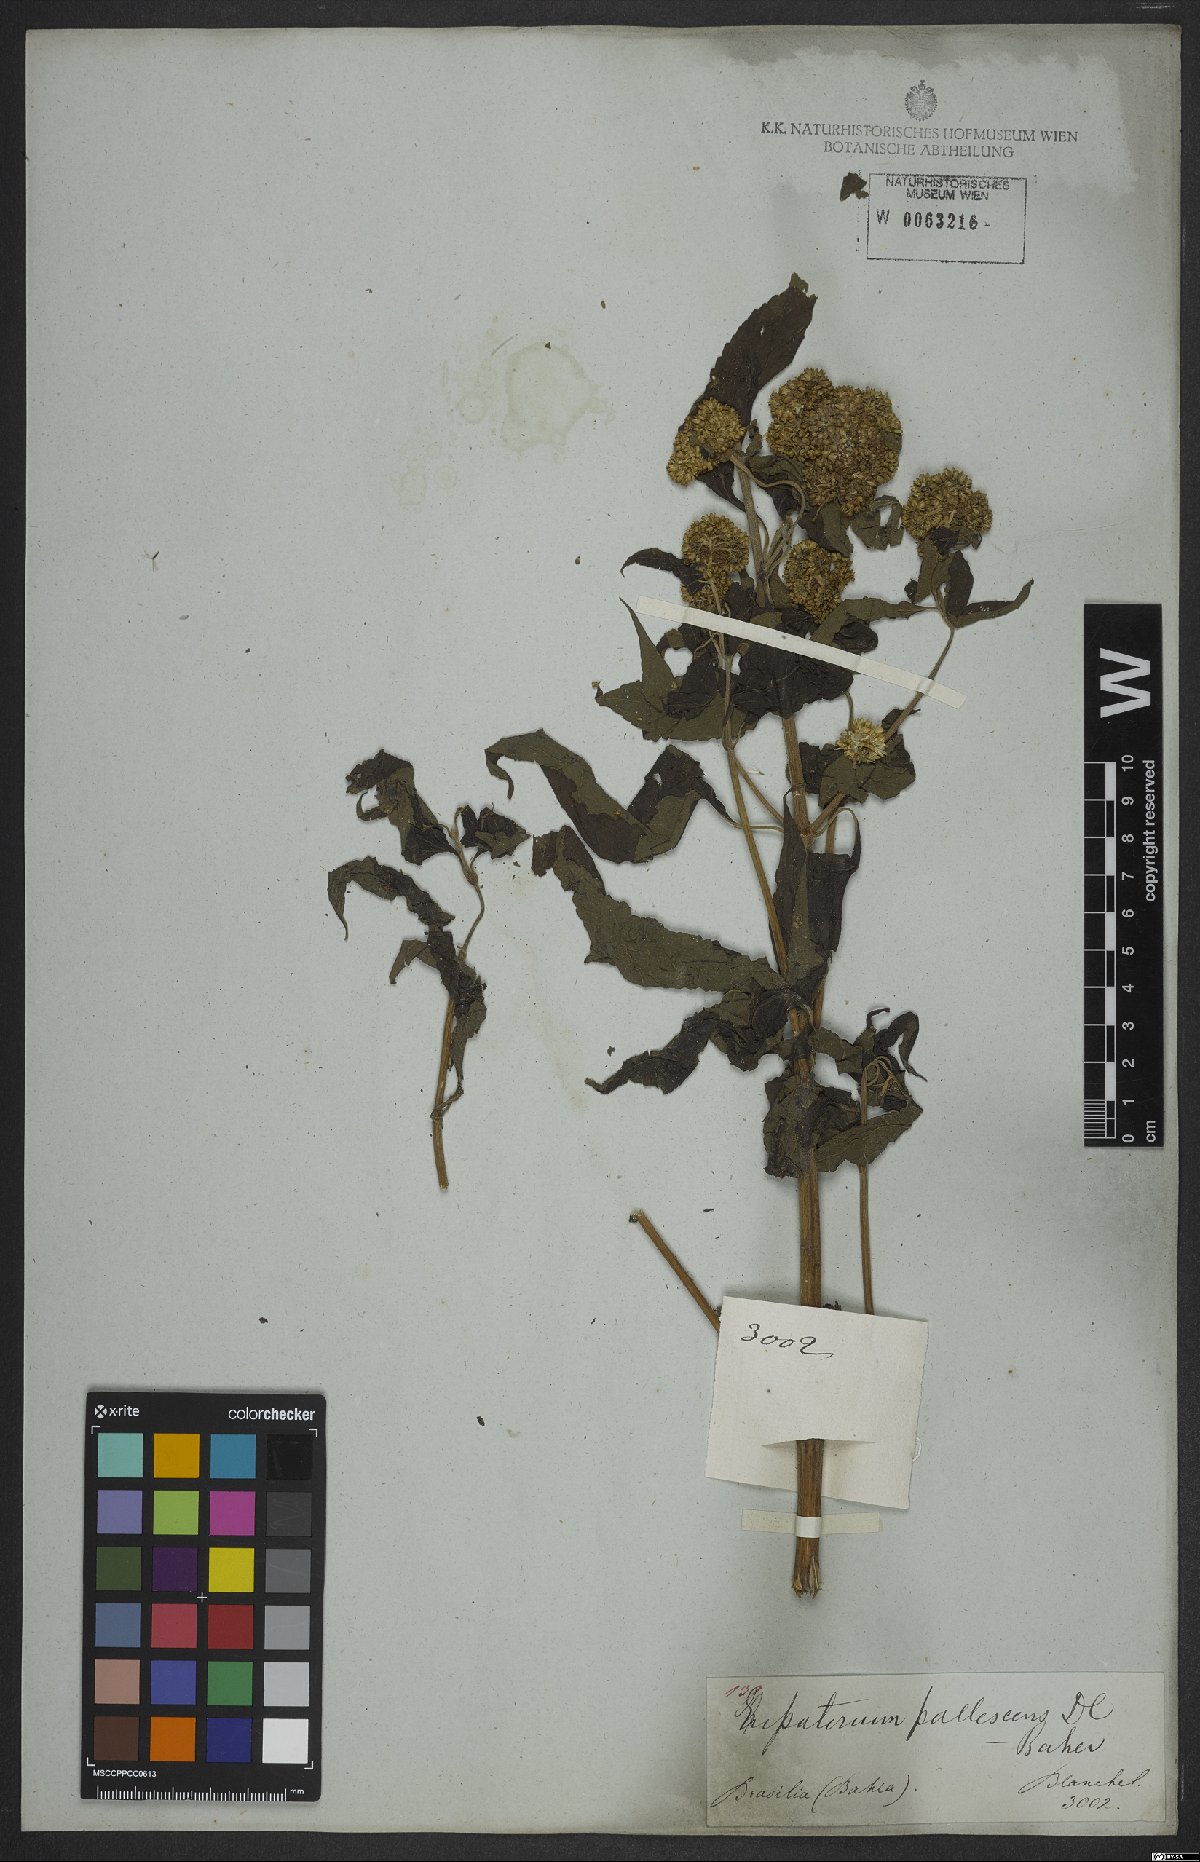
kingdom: Plantae
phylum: Tracheophyta
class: Magnoliopsida
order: Asterales
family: Asteraceae
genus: Austroeupatorium
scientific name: Austroeupatorium inulifolium
